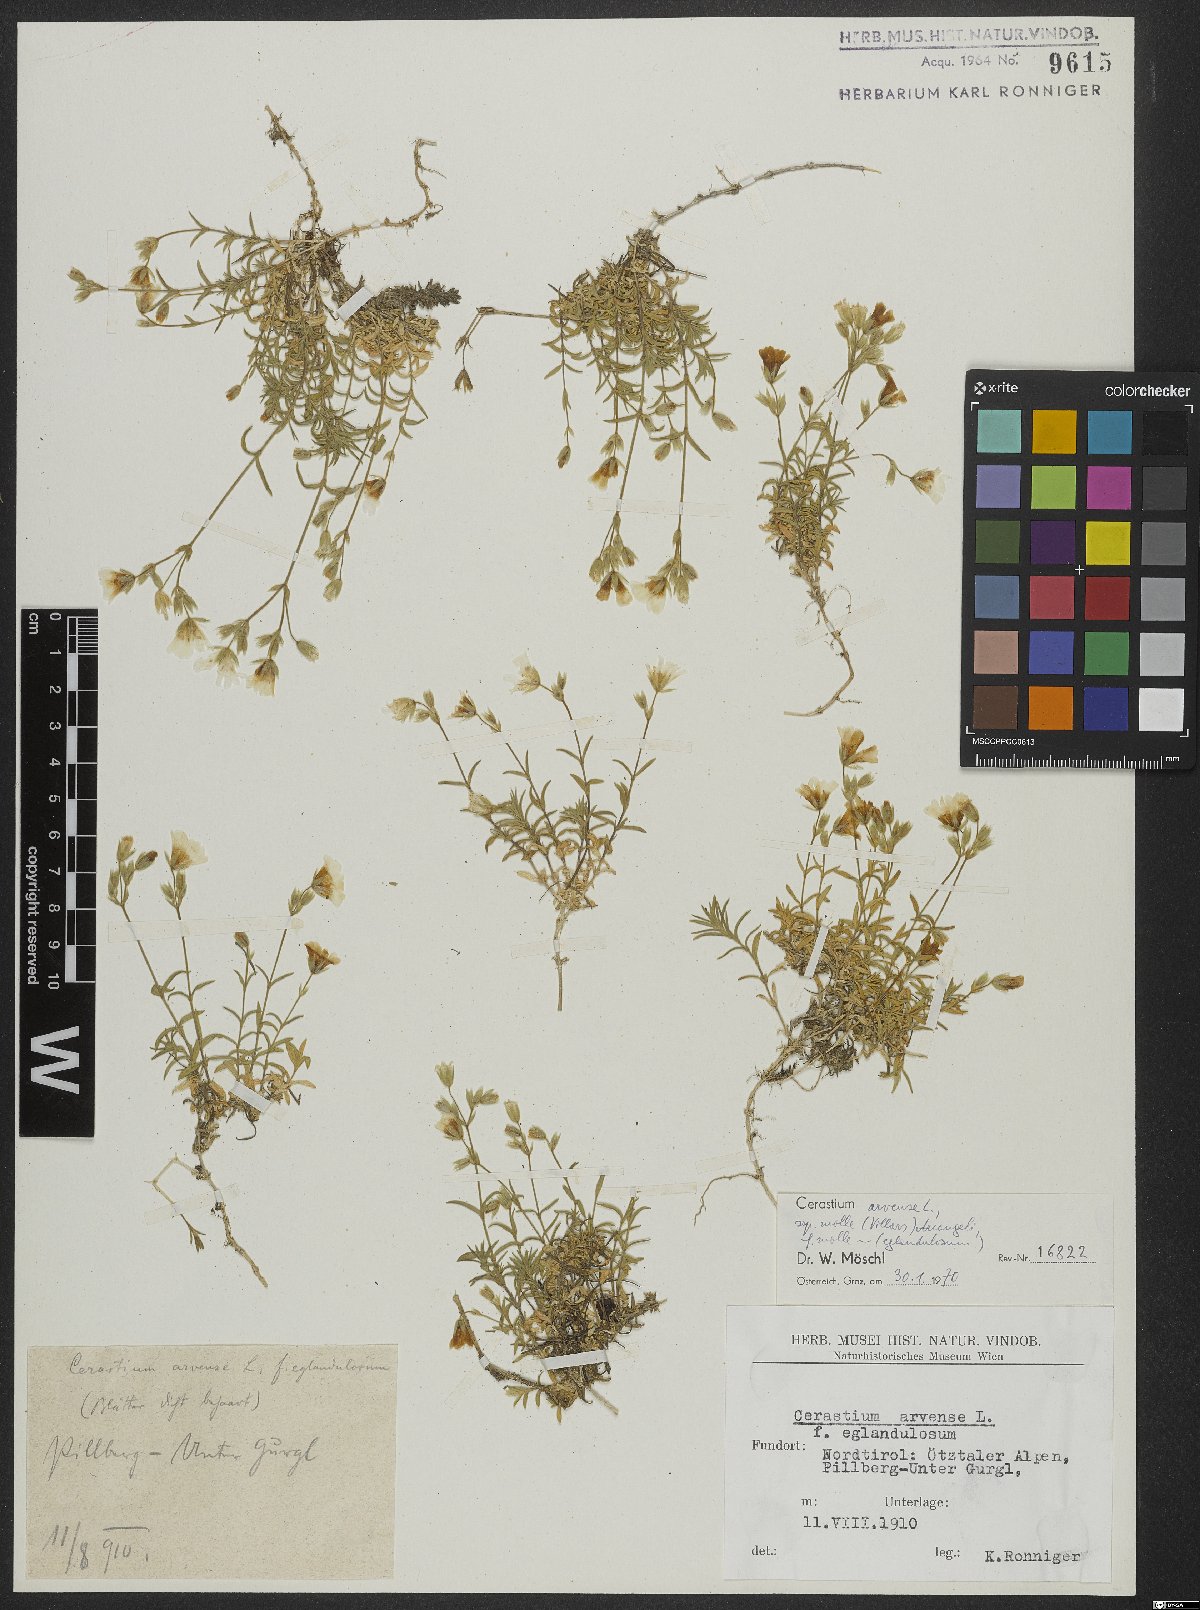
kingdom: Plantae
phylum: Tracheophyta
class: Magnoliopsida
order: Caryophyllales
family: Caryophyllaceae
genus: Cerastium
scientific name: Cerastium arvense
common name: Field mouse-ear
